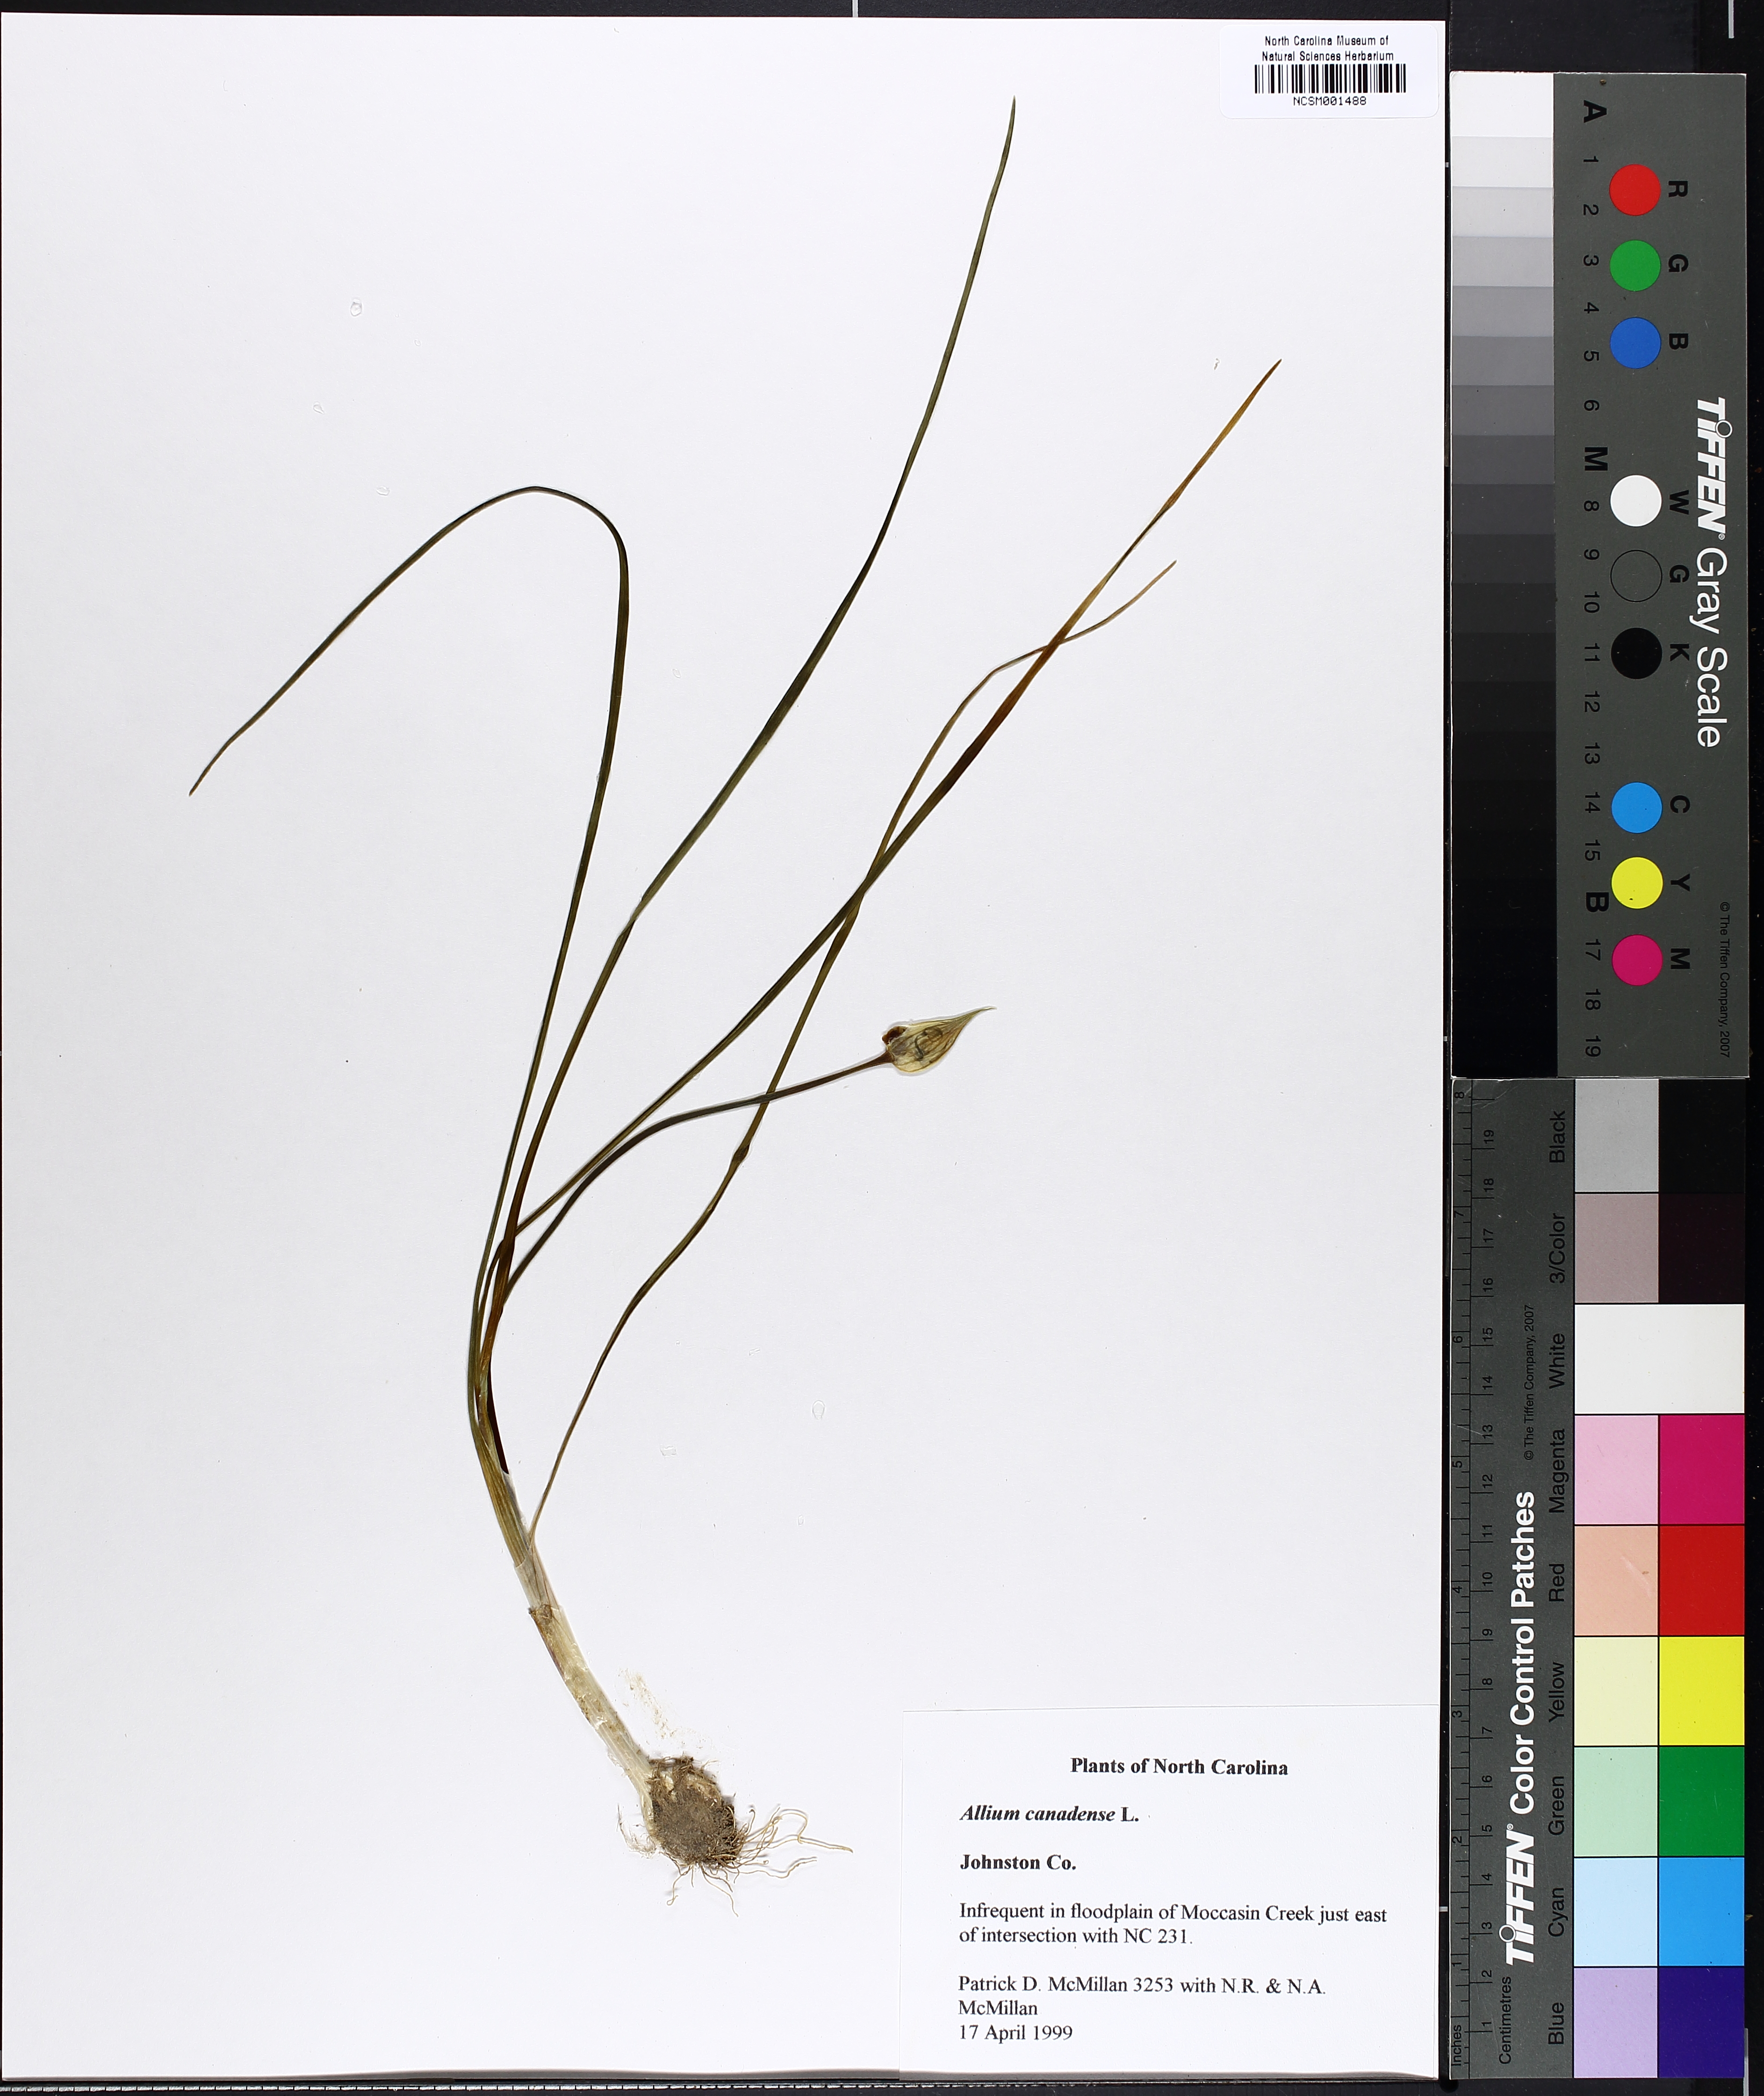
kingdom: Plantae
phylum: Tracheophyta
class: Liliopsida
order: Asparagales
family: Amaryllidaceae
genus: Allium
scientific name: Allium canadense
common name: Meadow garlic
